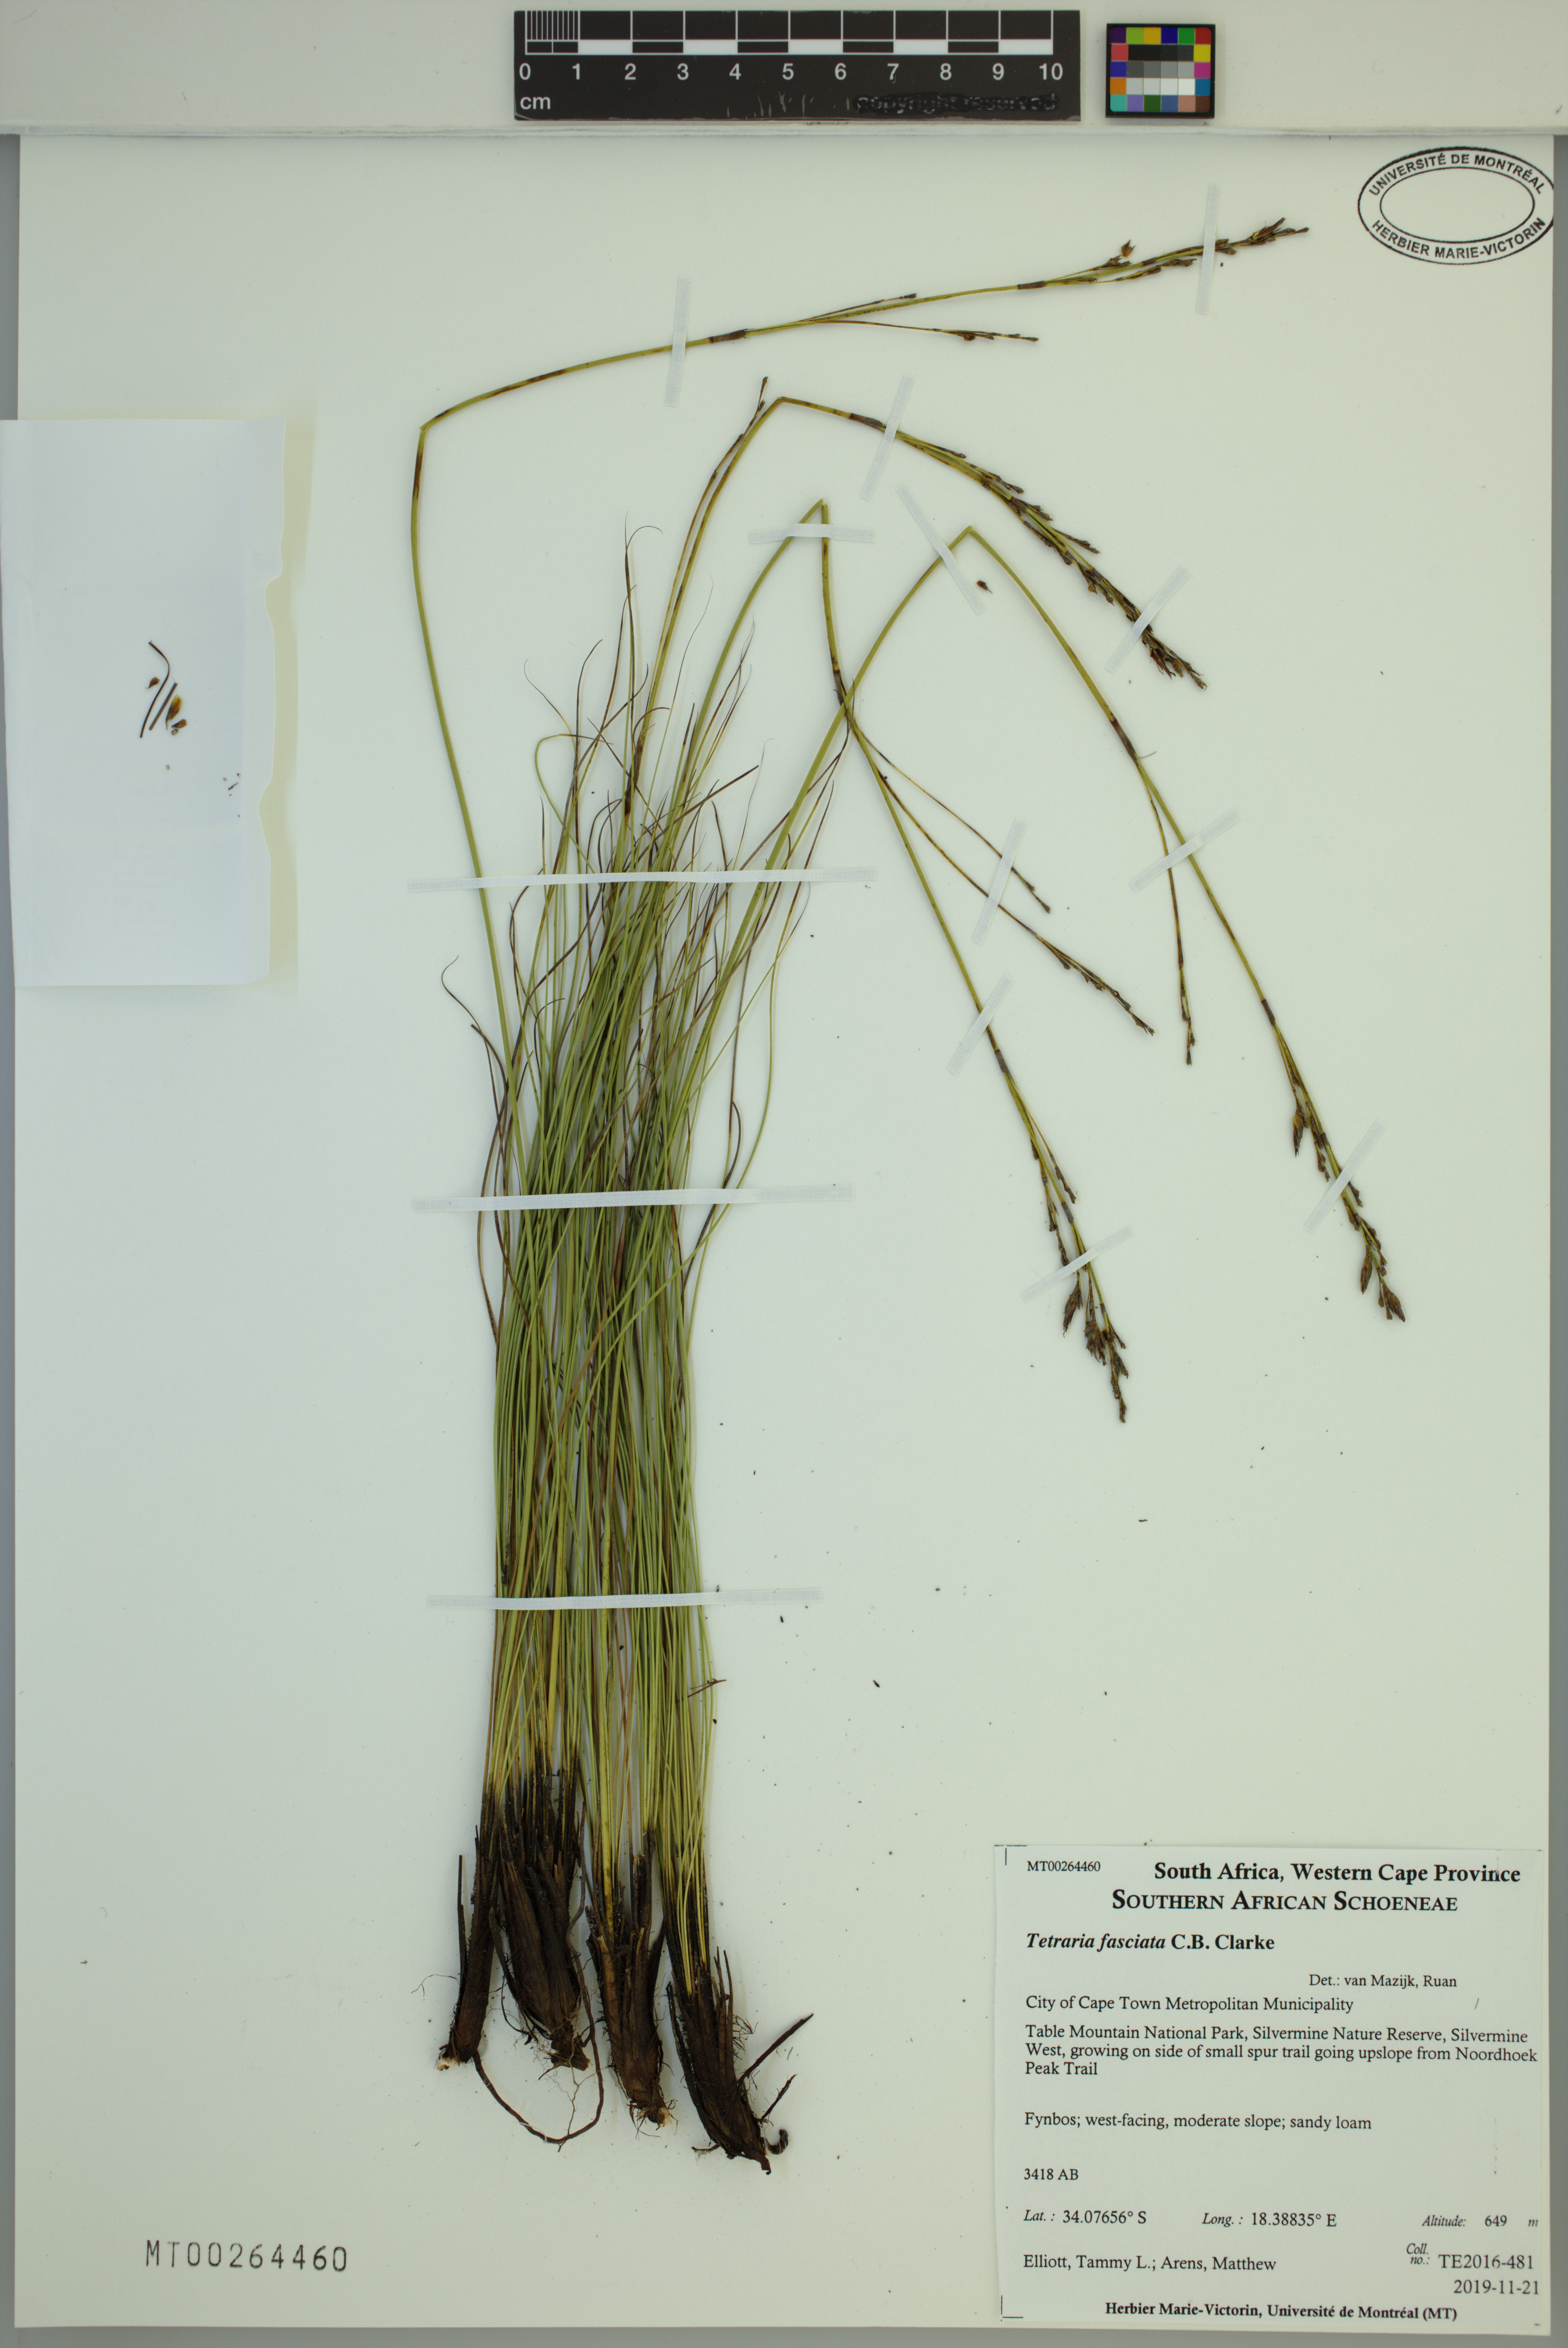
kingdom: Plantae
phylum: Tracheophyta
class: Liliopsida
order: Poales
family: Cyperaceae
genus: Tetraria
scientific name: Tetraria fasciata
